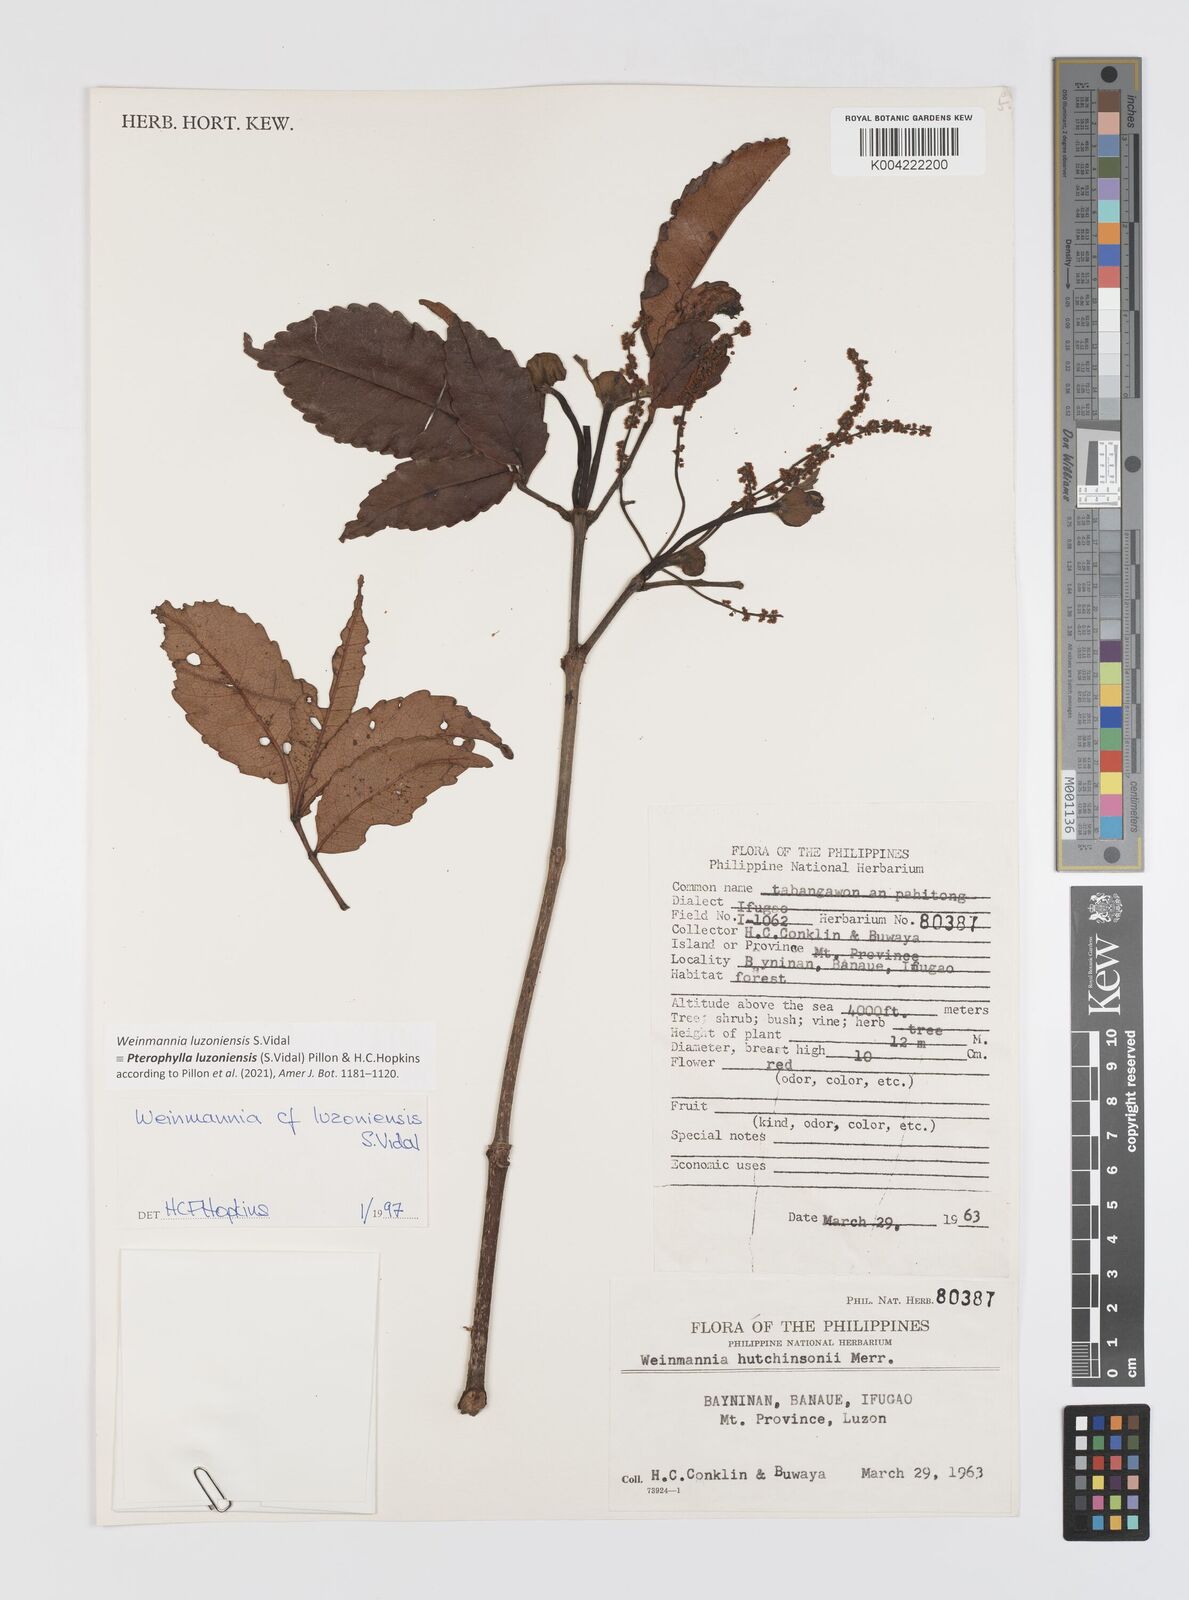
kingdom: Plantae
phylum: Tracheophyta
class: Magnoliopsida
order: Oxalidales
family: Cunoniaceae
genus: Pterophylla
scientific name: Pterophylla luzoniensis
